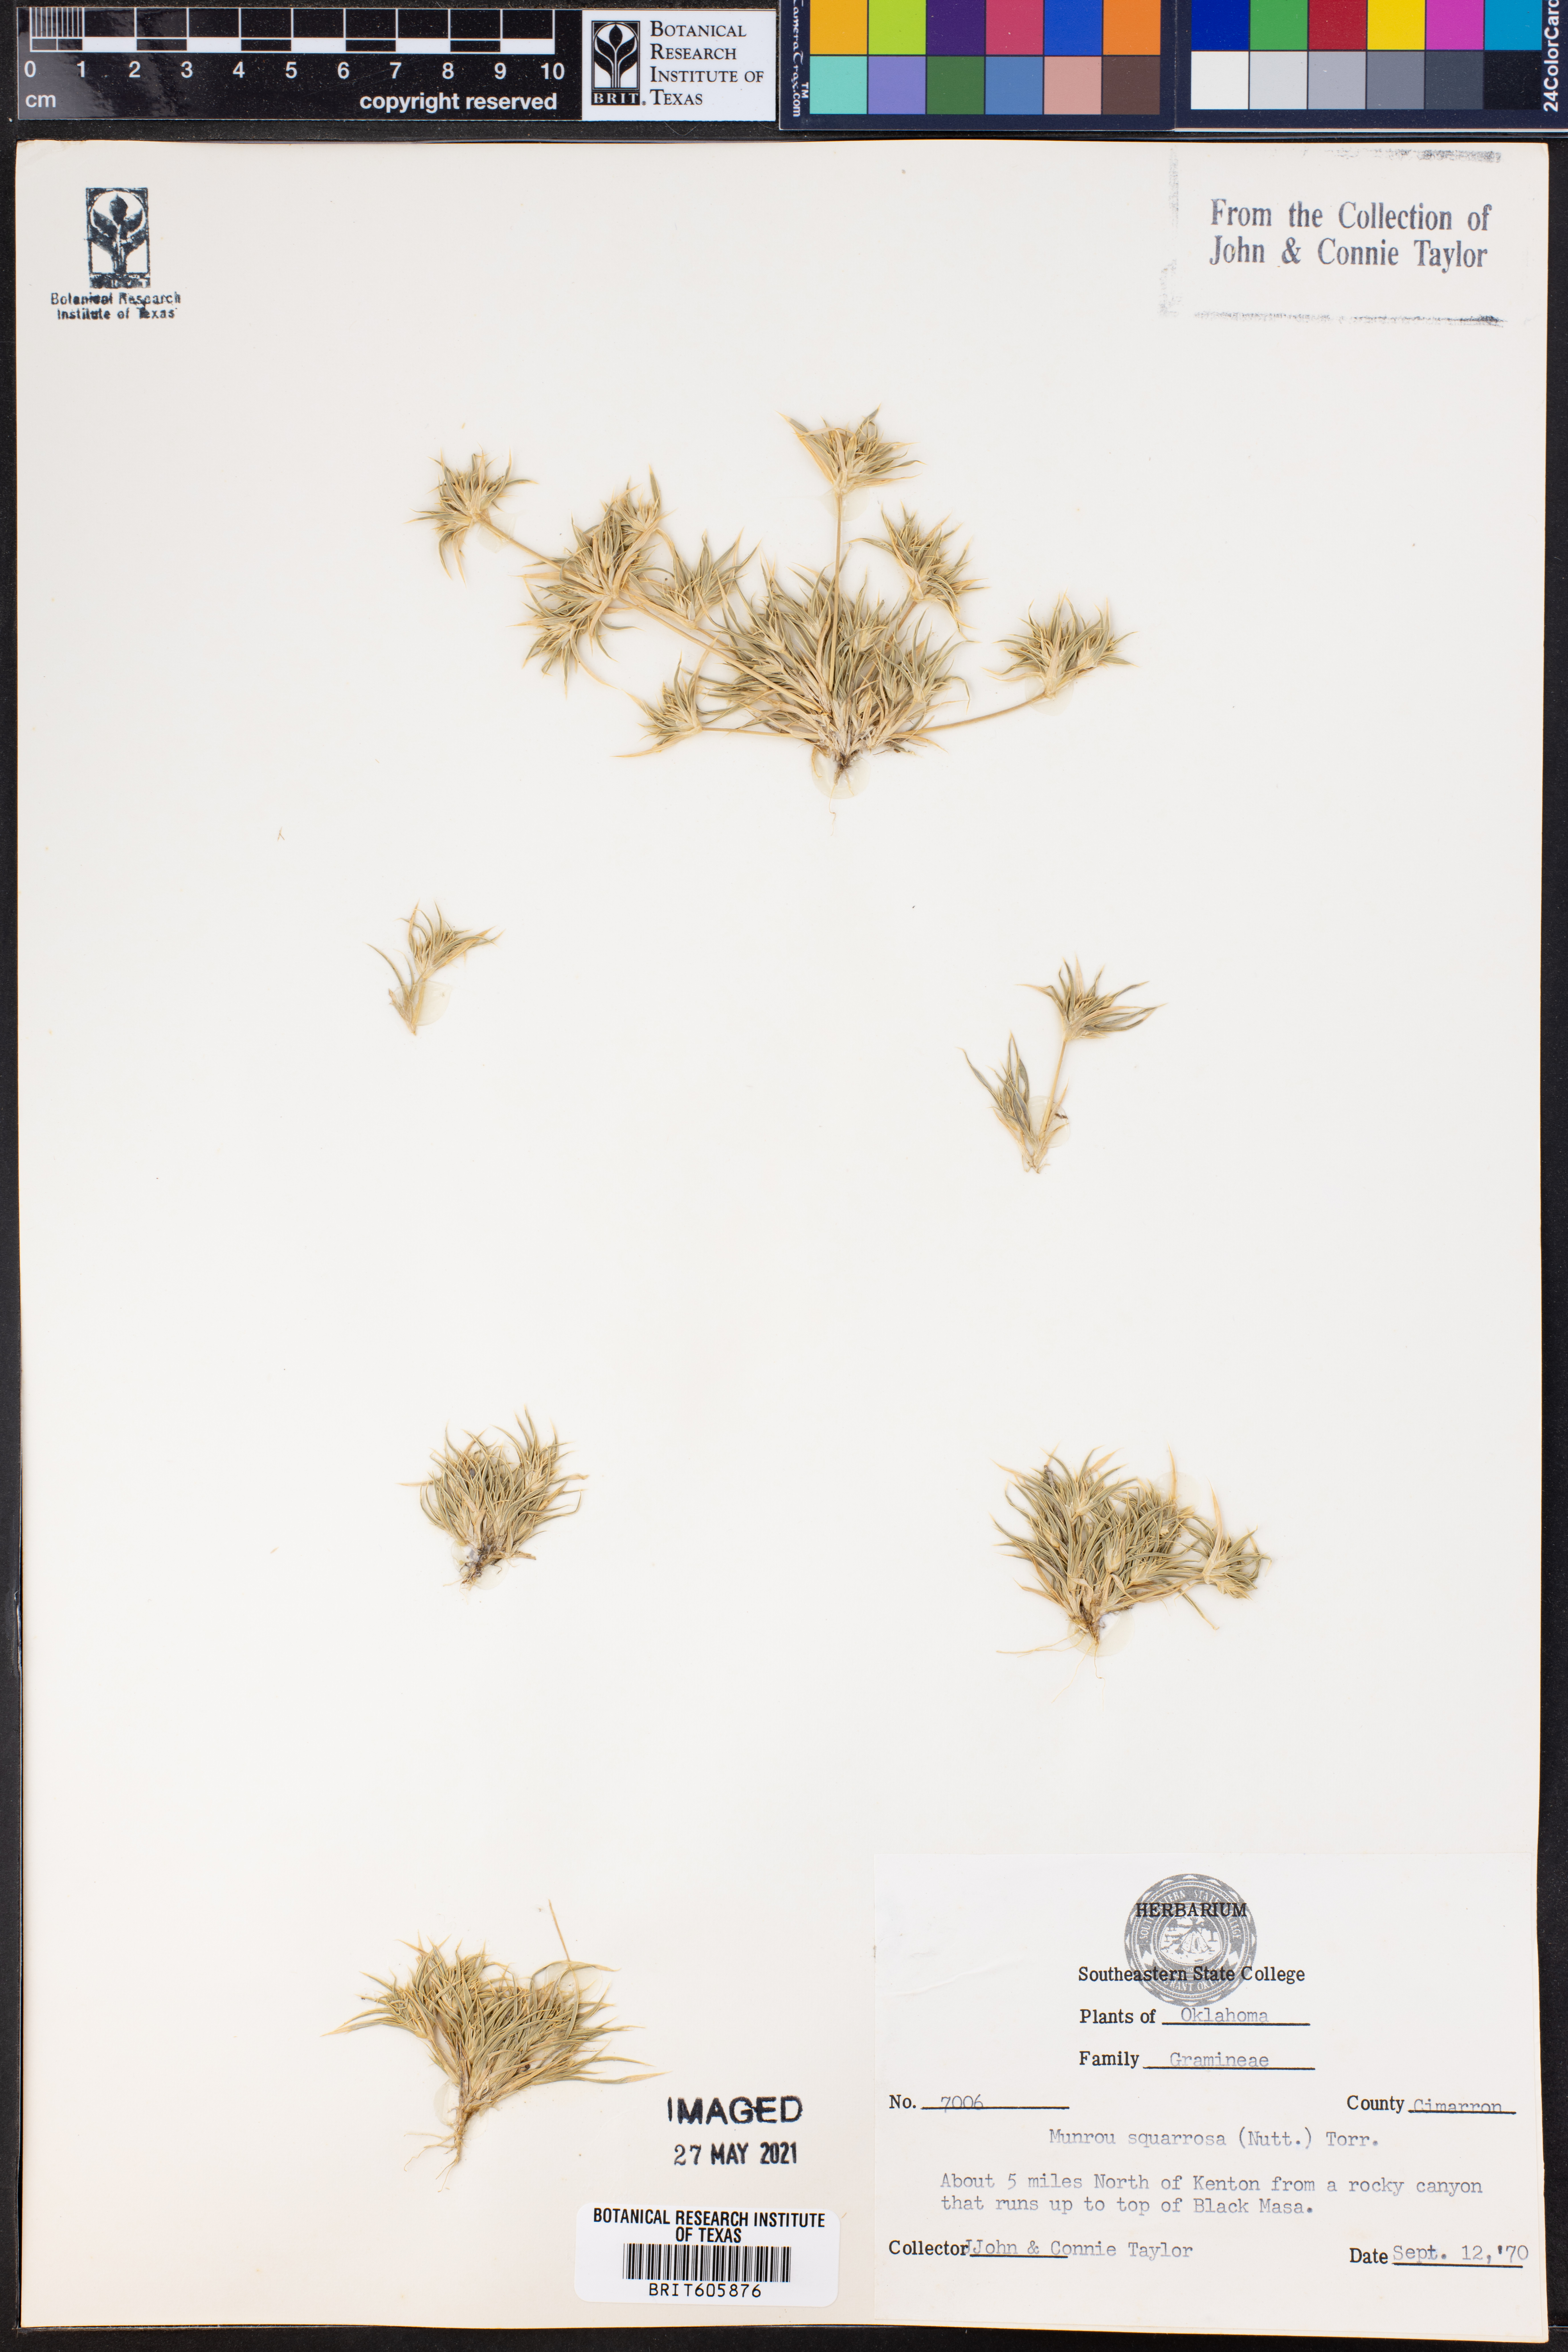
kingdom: Plantae
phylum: Tracheophyta
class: Liliopsida
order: Poales
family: Poaceae
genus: Munroa
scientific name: Munroa squarrosa
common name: False buffalo grass
